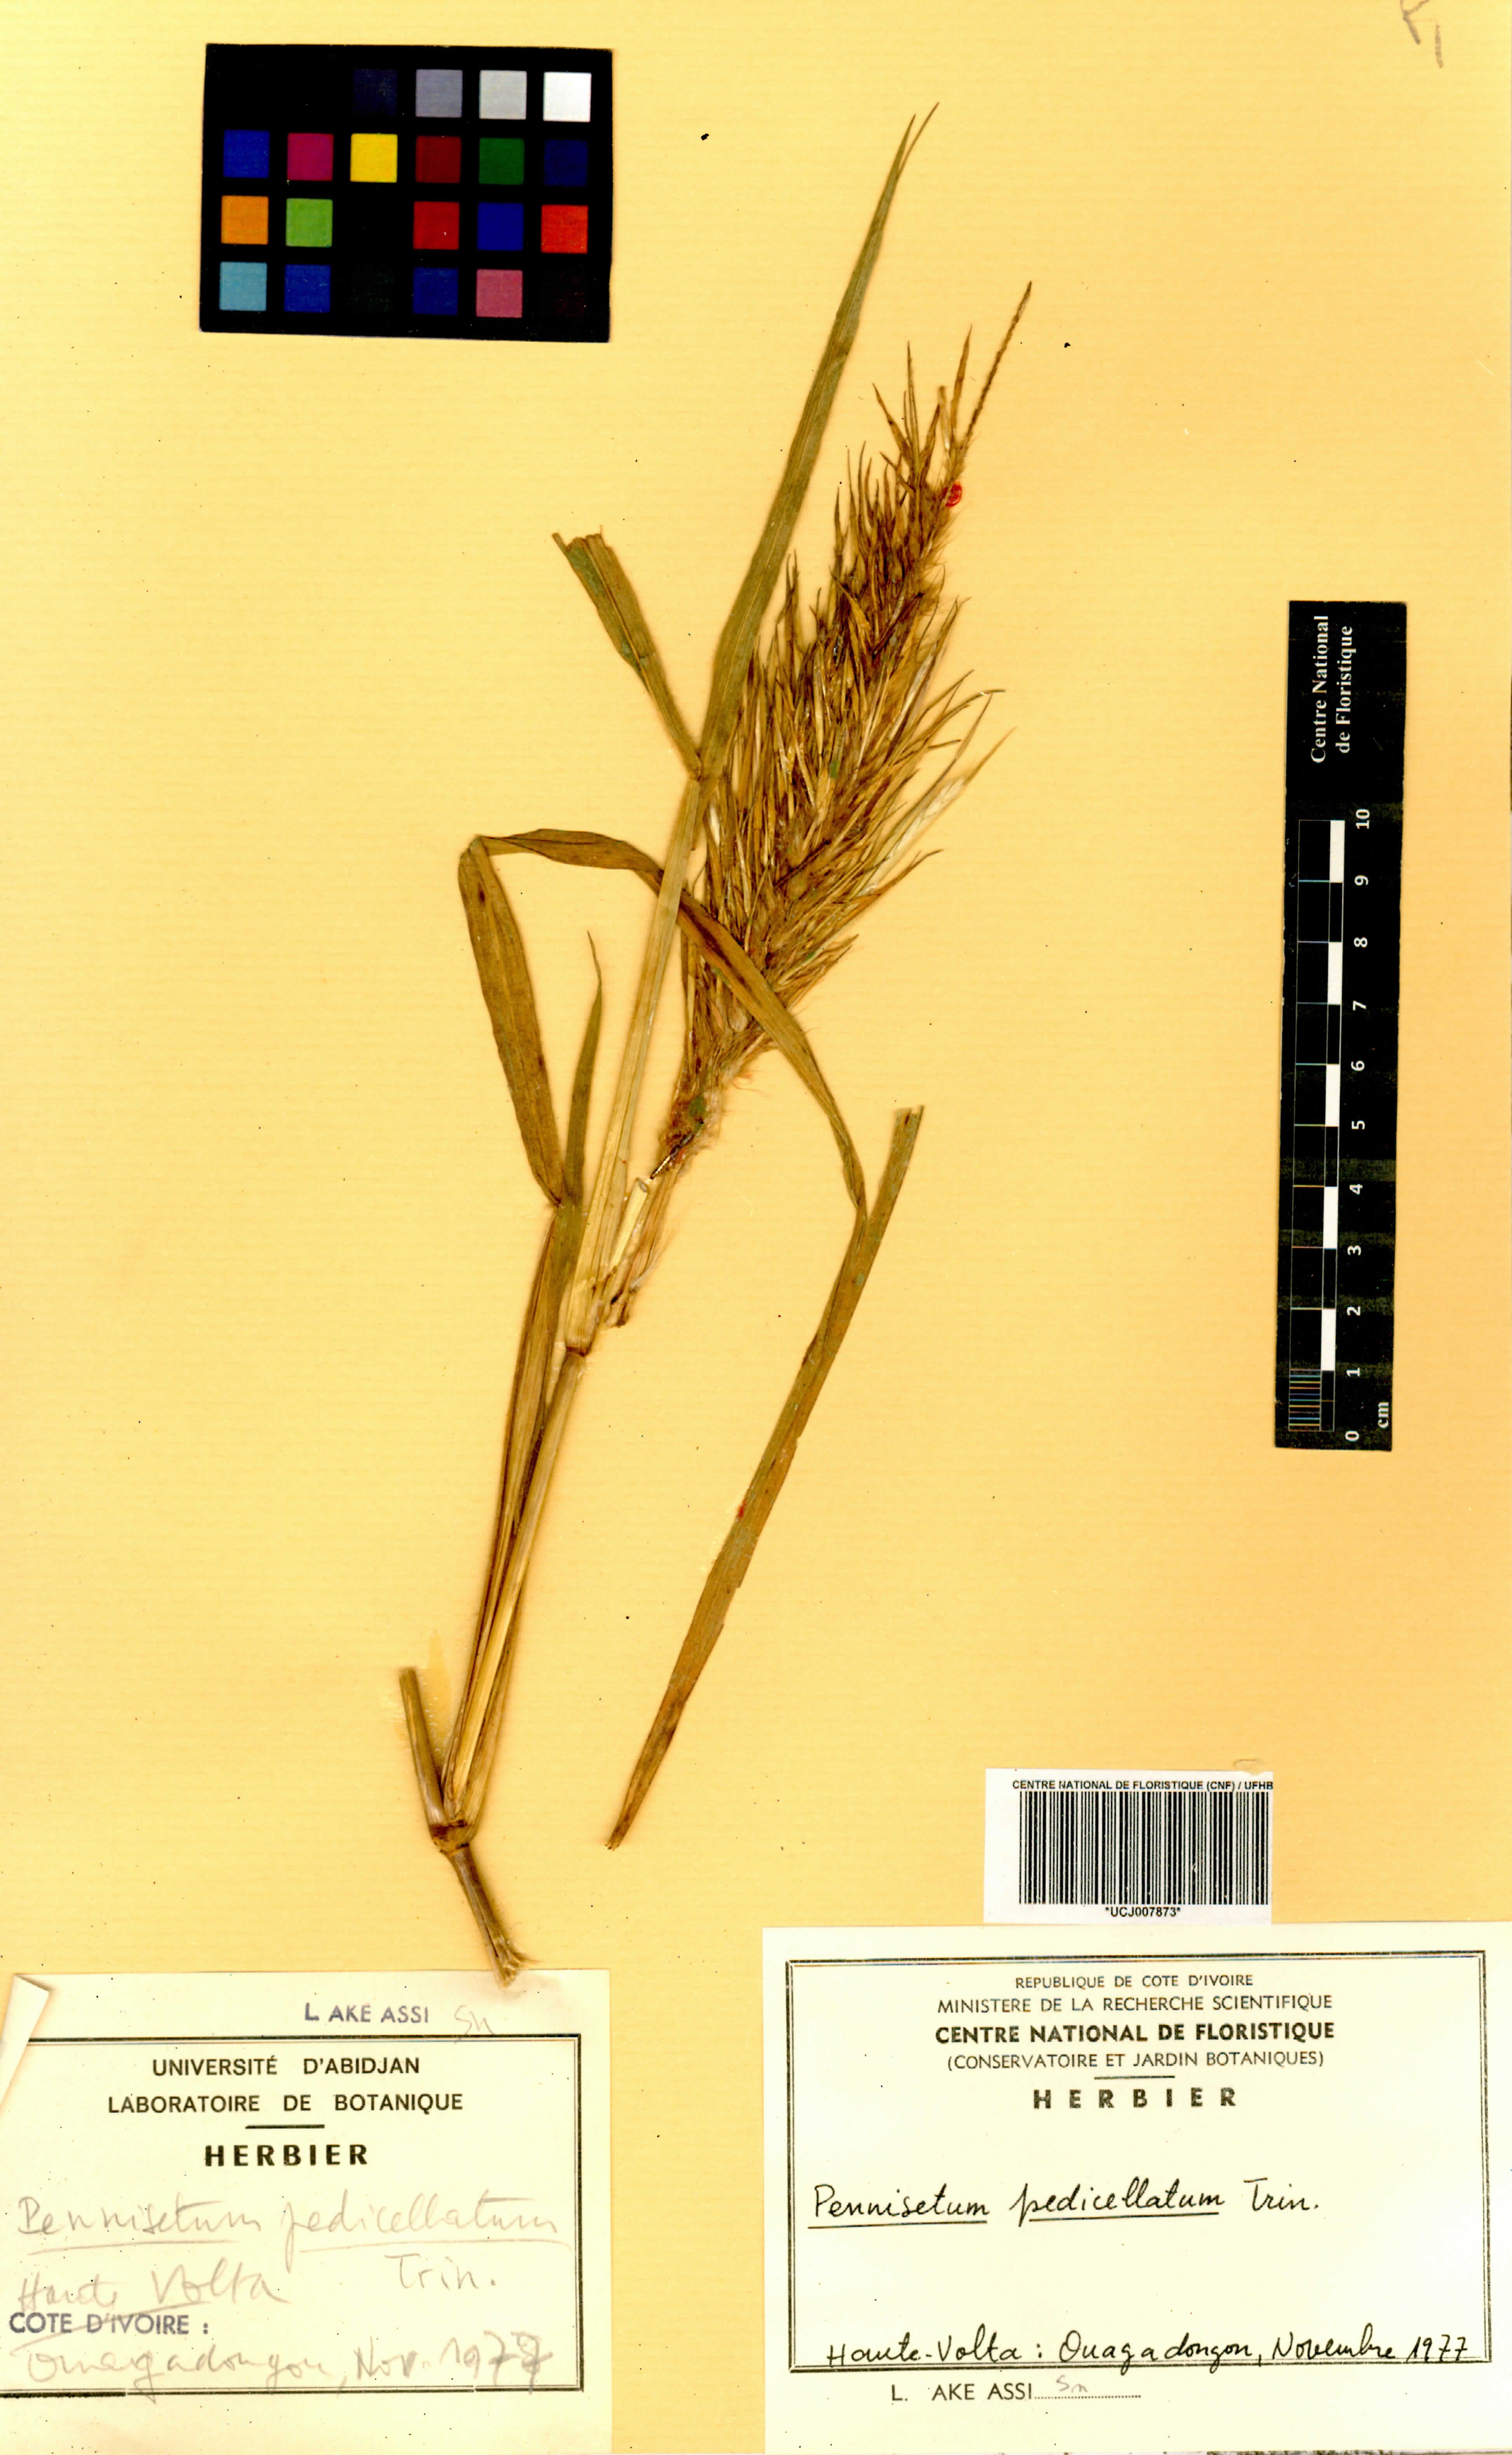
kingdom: Plantae
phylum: Tracheophyta
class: Liliopsida
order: Poales
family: Poaceae
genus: Cenchrus
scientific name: Cenchrus pedicellatus
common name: Hairy fountain grass
